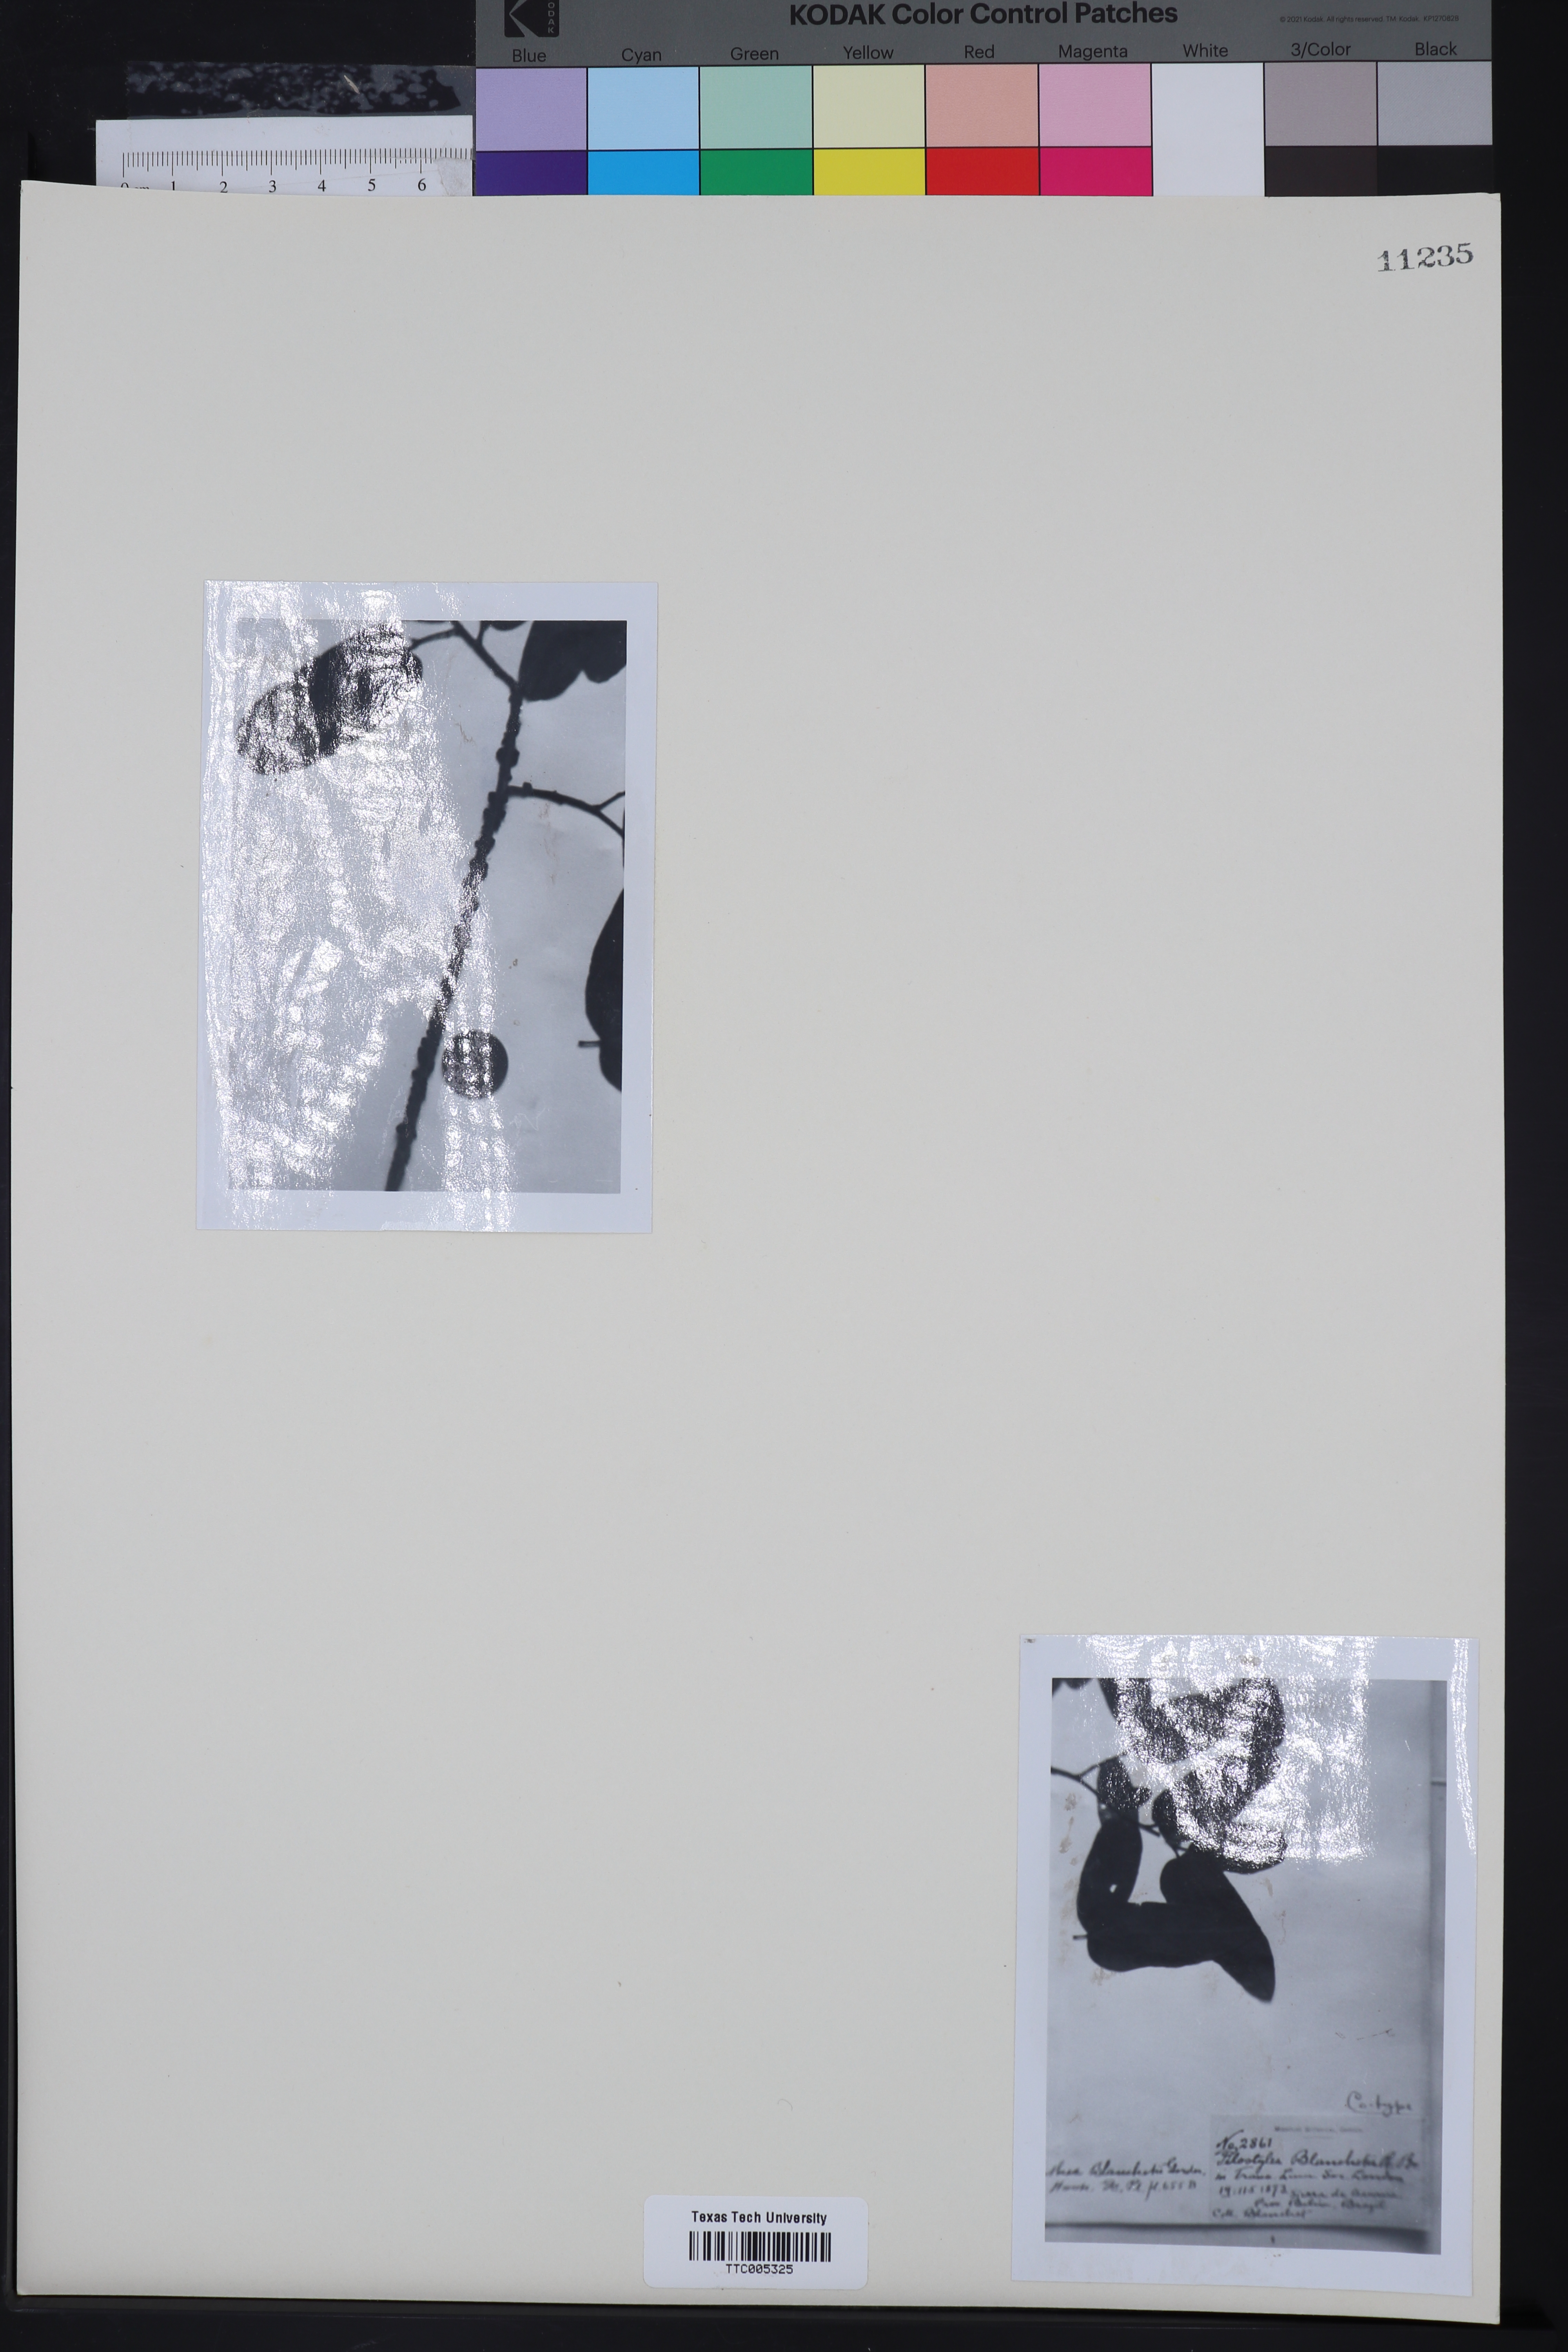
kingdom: Plantae
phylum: Tracheophyta
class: Magnoliopsida
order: Cucurbitales
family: Apodanthaceae
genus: Pilostyles
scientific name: Pilostyles blanchetii
